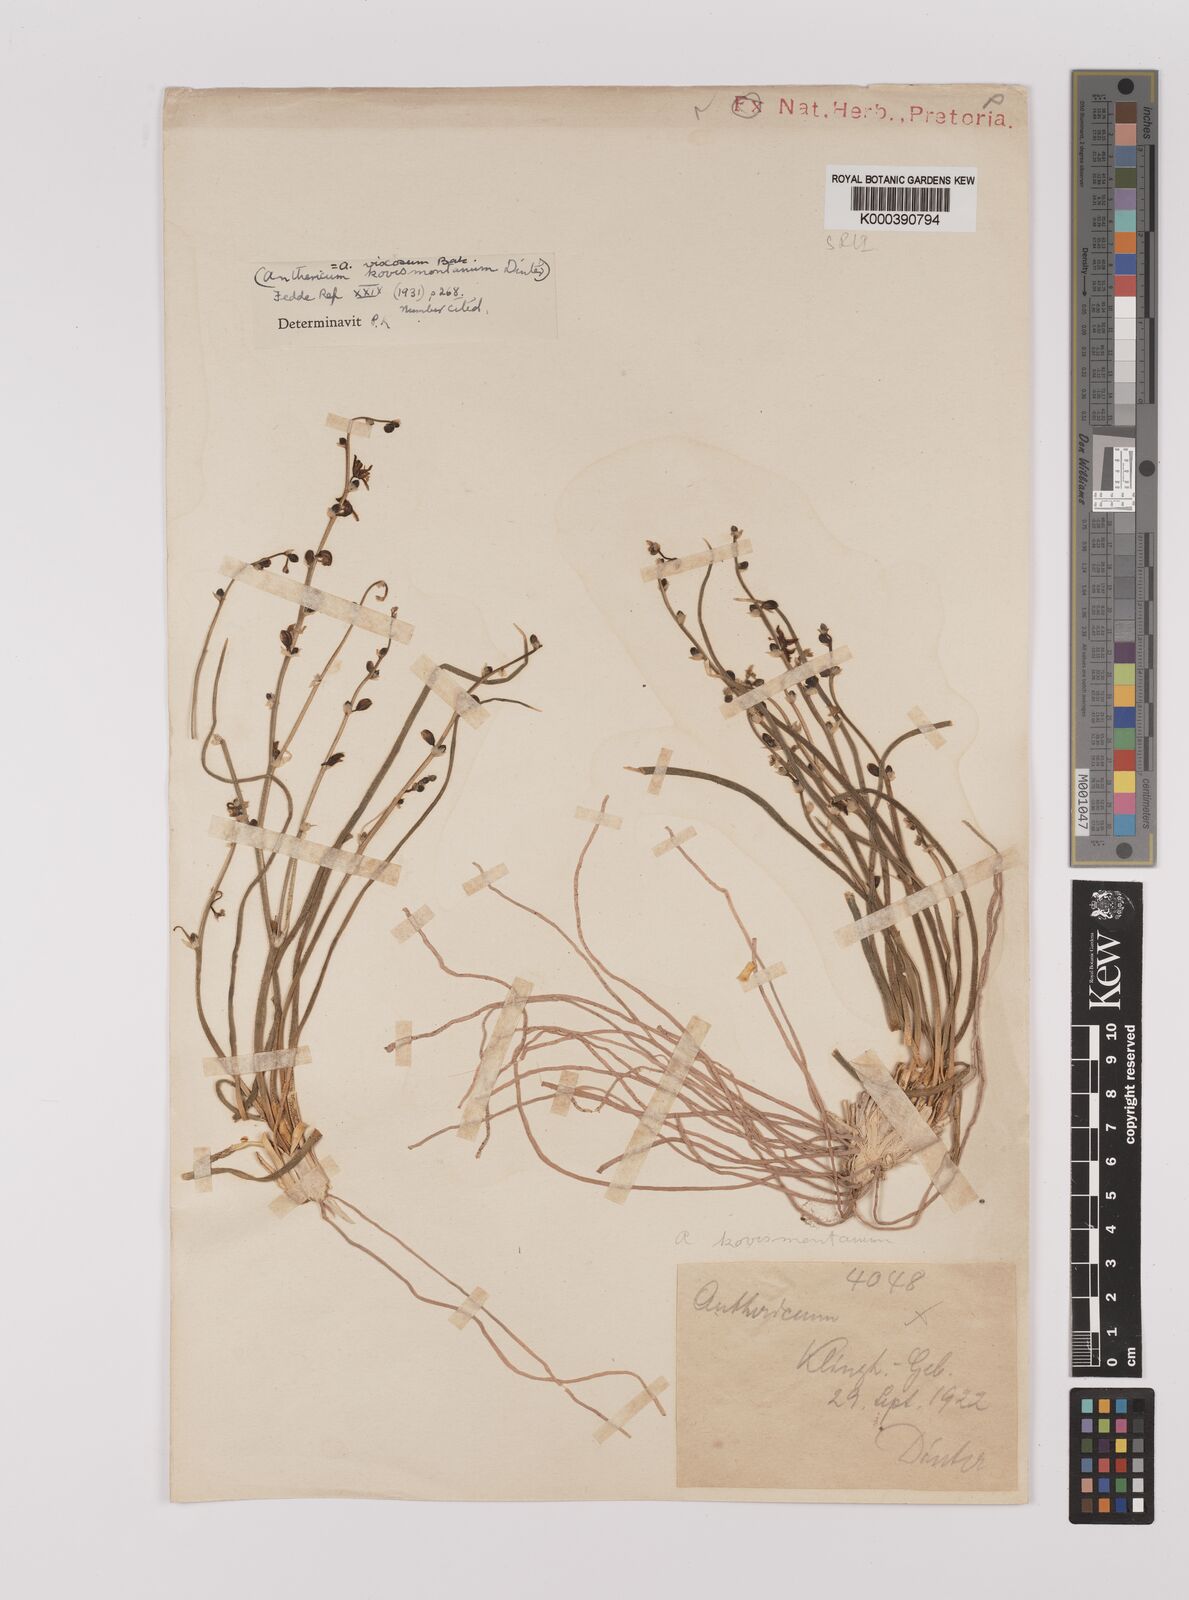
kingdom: Plantae
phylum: Tracheophyta
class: Liliopsida
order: Asparagales
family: Asparagaceae
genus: Chlorophytum
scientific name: Chlorophytum viscosum
